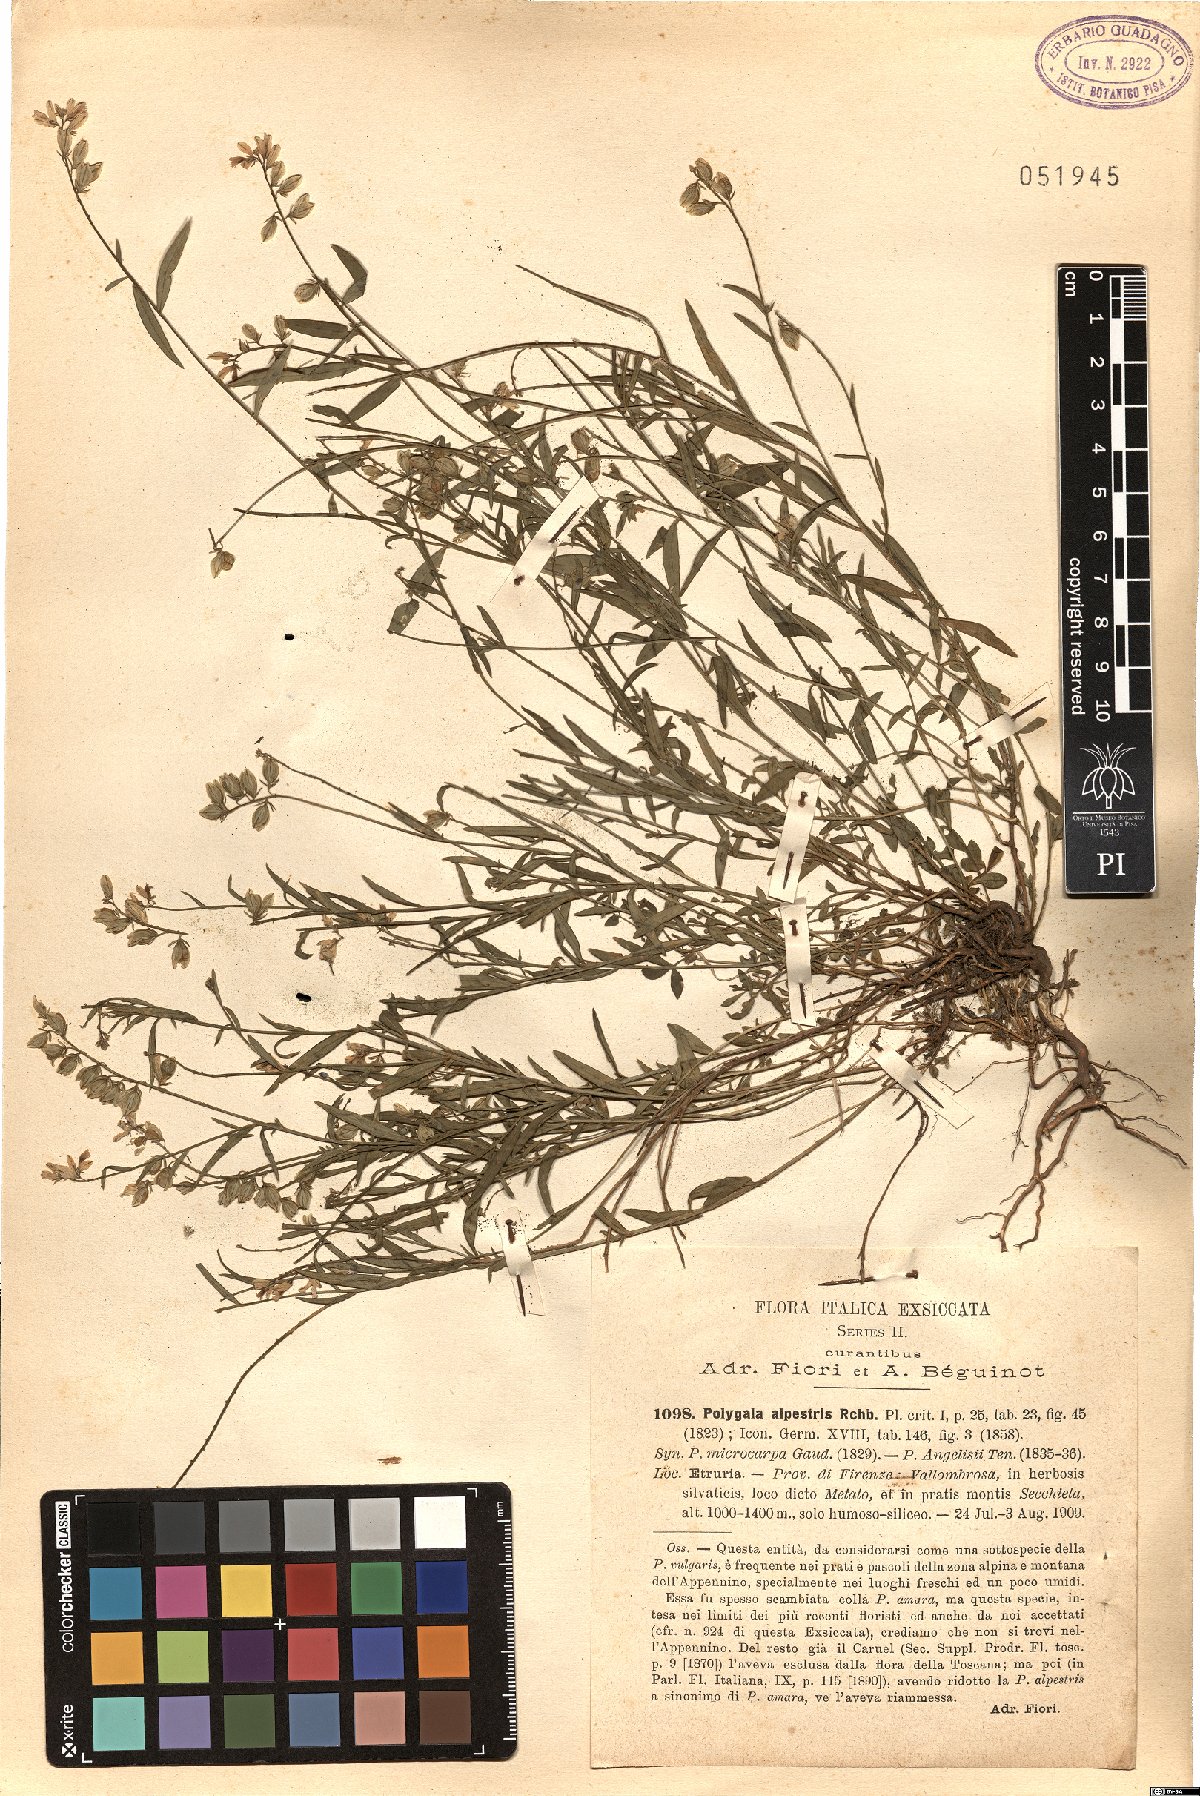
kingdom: Plantae
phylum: Tracheophyta
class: Magnoliopsida
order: Fabales
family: Polygalaceae
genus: Polygala
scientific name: Polygala alpestris
